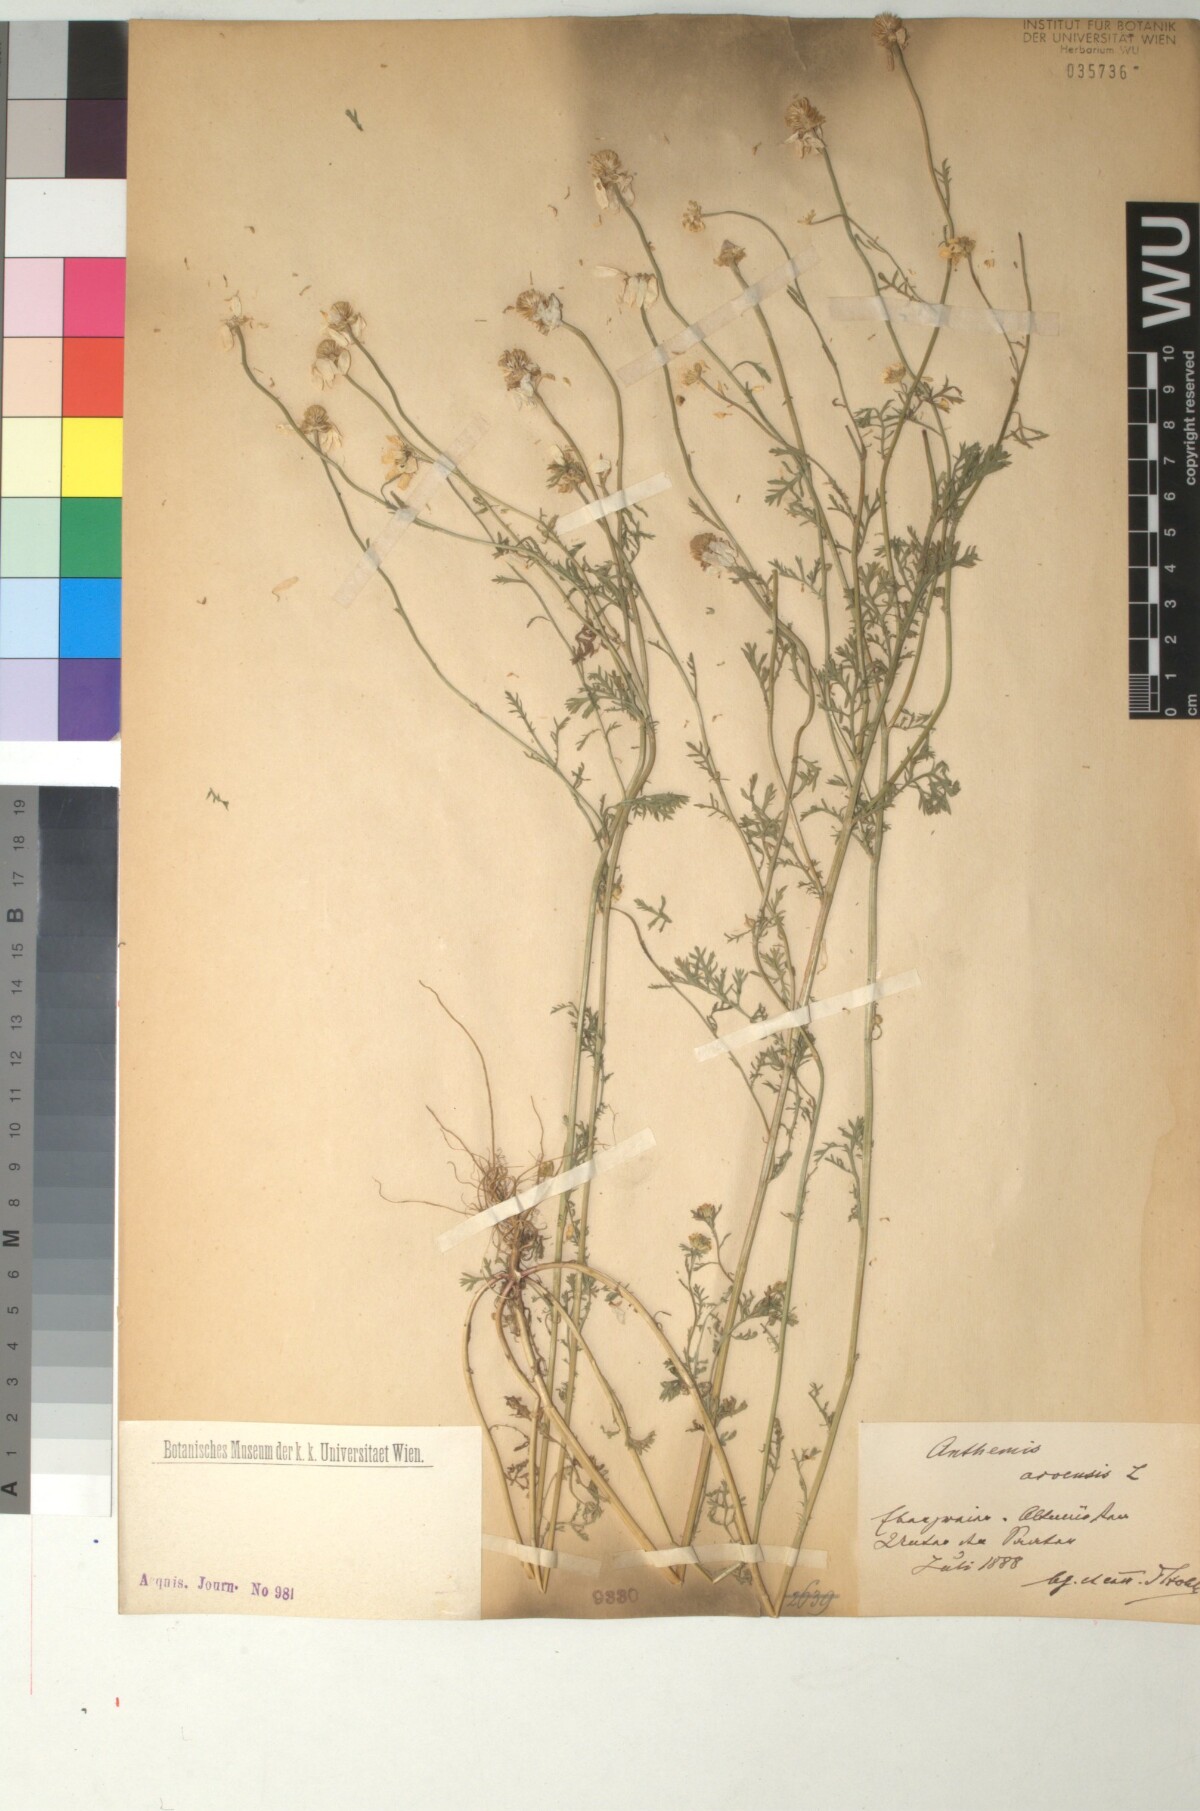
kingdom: Plantae
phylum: Tracheophyta
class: Magnoliopsida
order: Asterales
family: Asteraceae
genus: Anthemis
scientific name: Anthemis arvensis
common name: Corn chamomile
